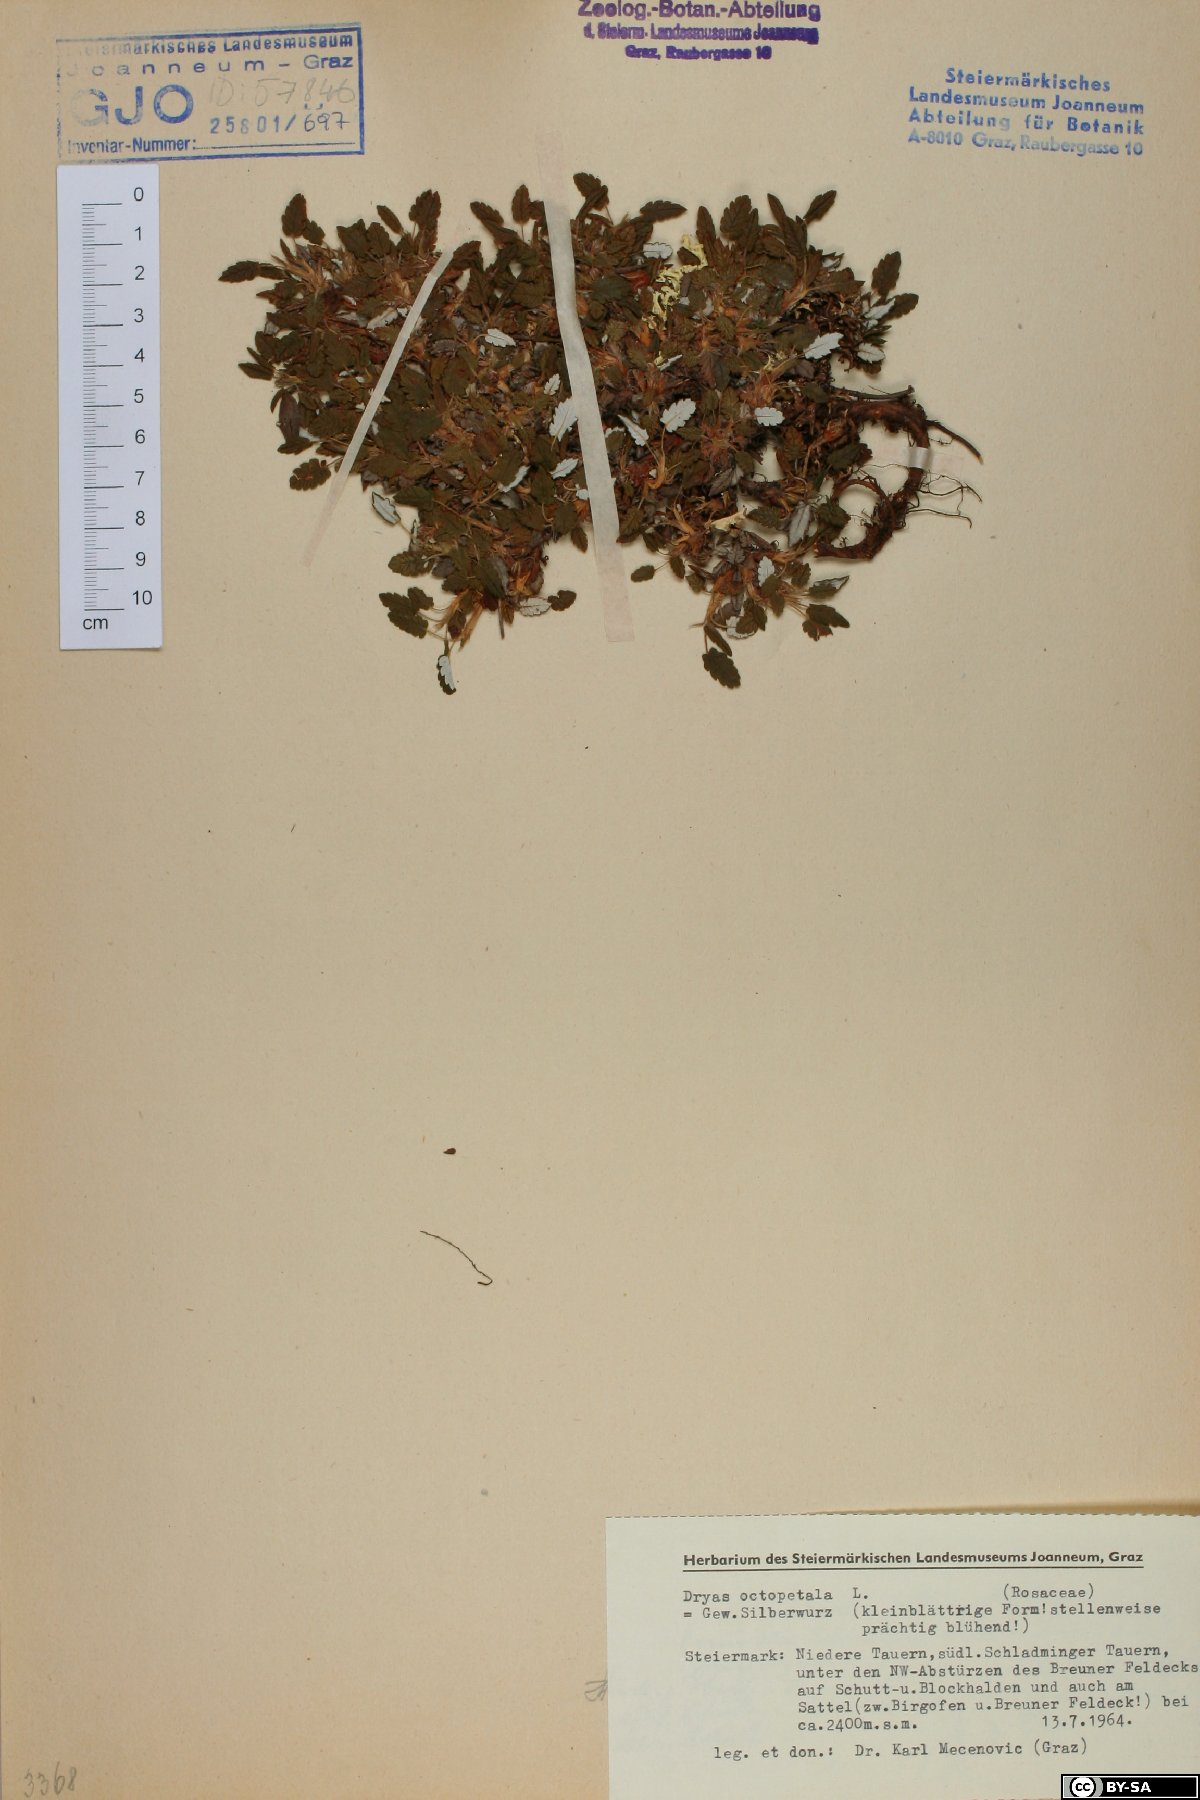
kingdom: Plantae
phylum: Tracheophyta
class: Magnoliopsida
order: Rosales
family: Rosaceae
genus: Dryas
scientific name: Dryas octopetala
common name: Eight-petal mountain-avens
